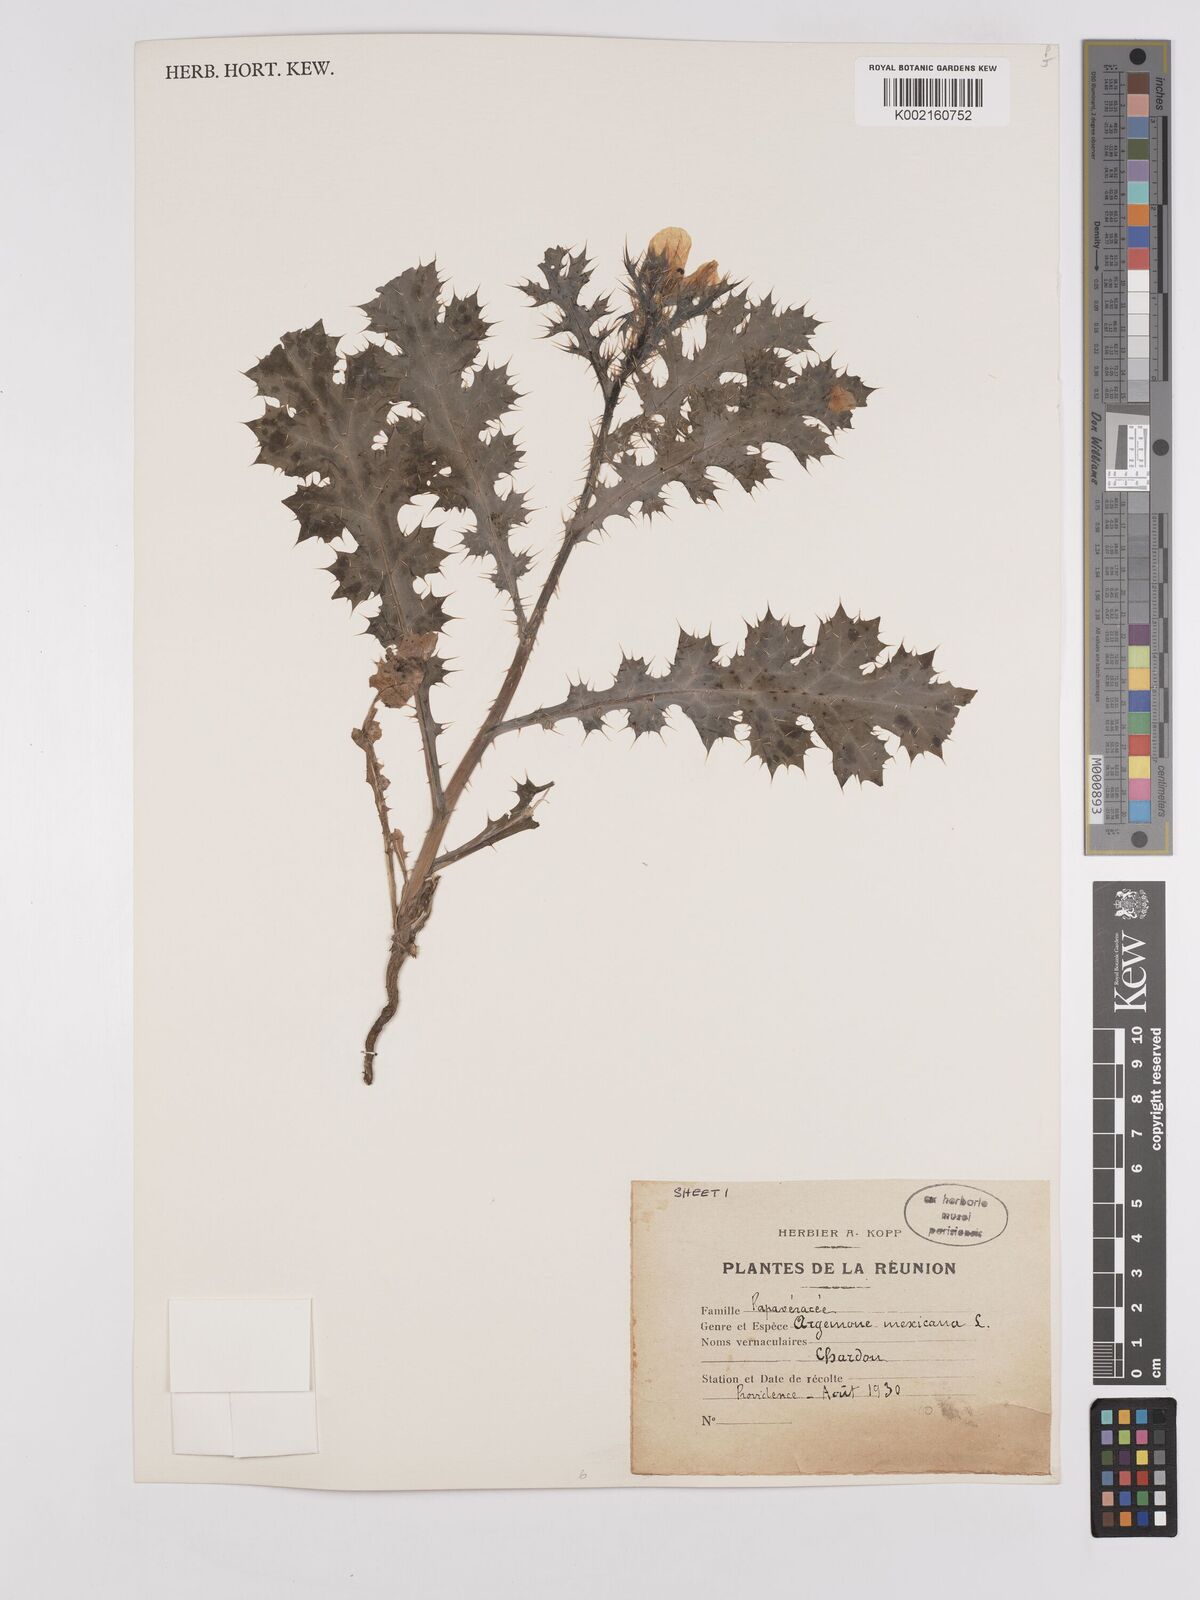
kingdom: Plantae
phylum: Tracheophyta
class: Magnoliopsida
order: Ranunculales
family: Papaveraceae
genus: Argemone
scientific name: Argemone mexicana
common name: Mexican poppy
